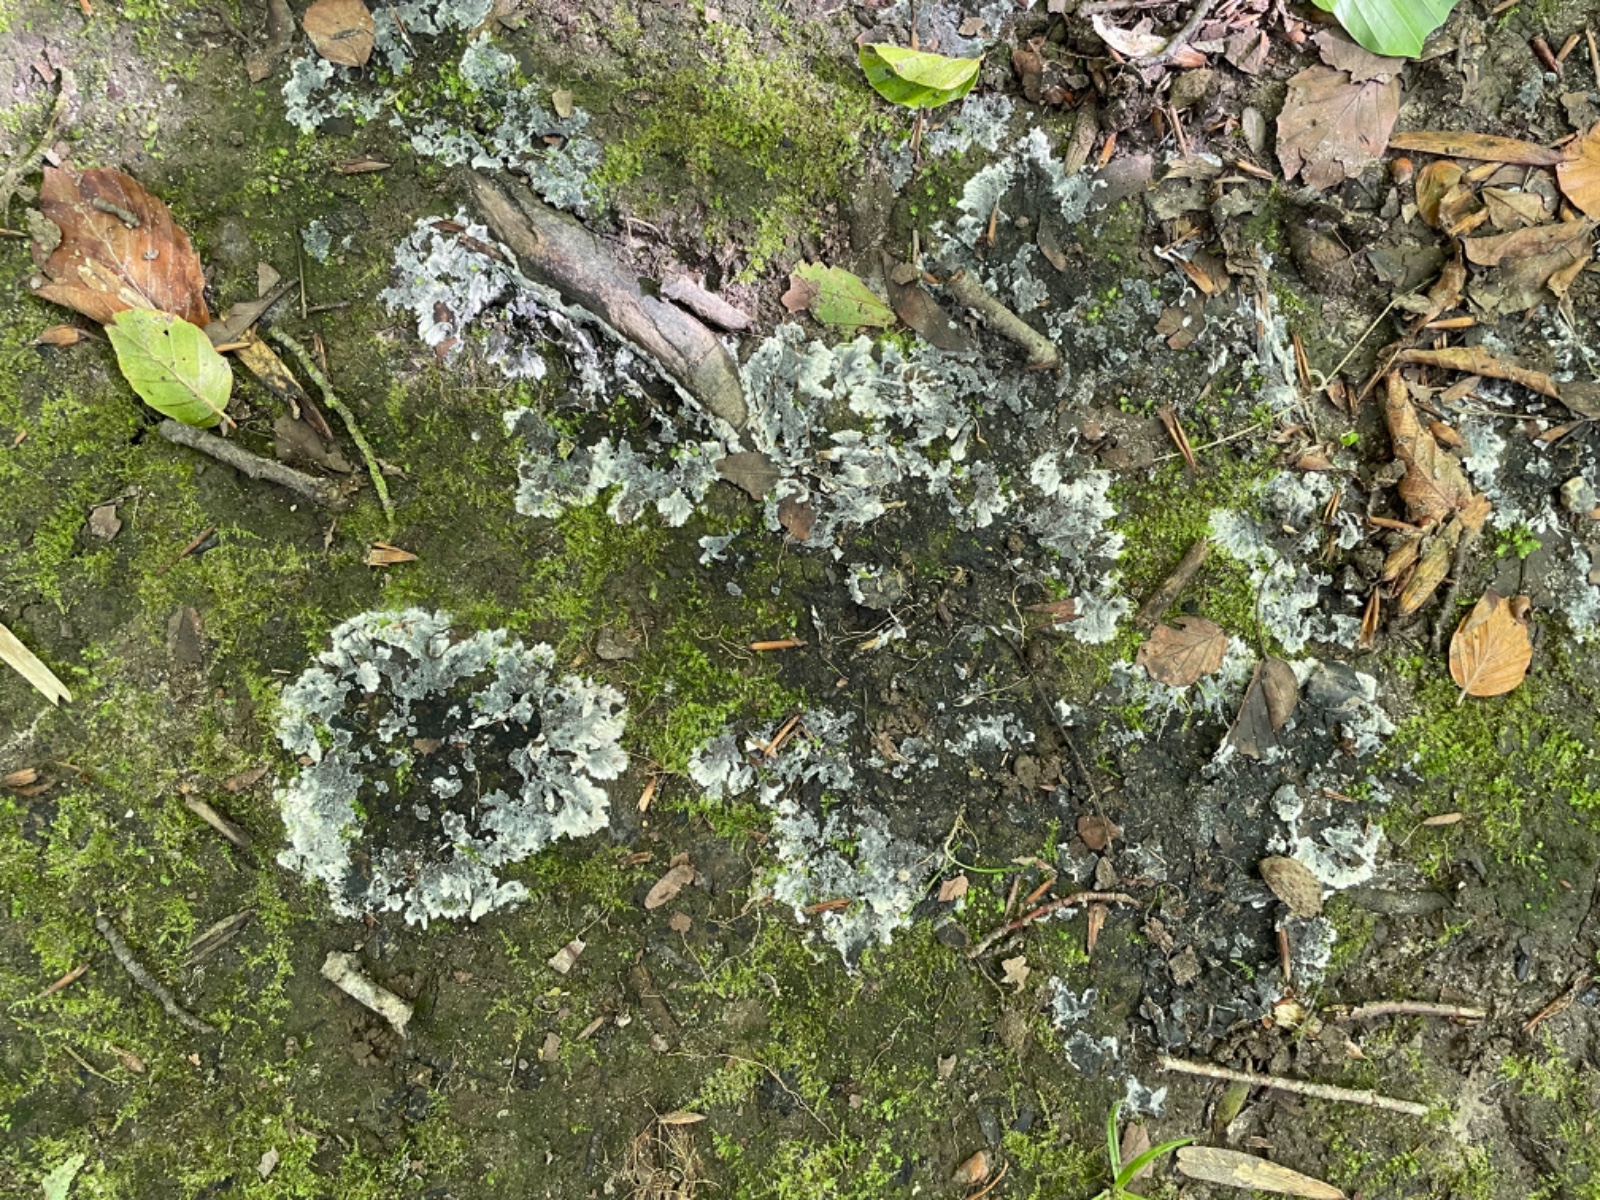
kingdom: Fungi
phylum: Basidiomycota
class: Agaricomycetes
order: Thelephorales
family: Thelephoraceae
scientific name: Thelephoraceae
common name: frynsesvampfamilien
